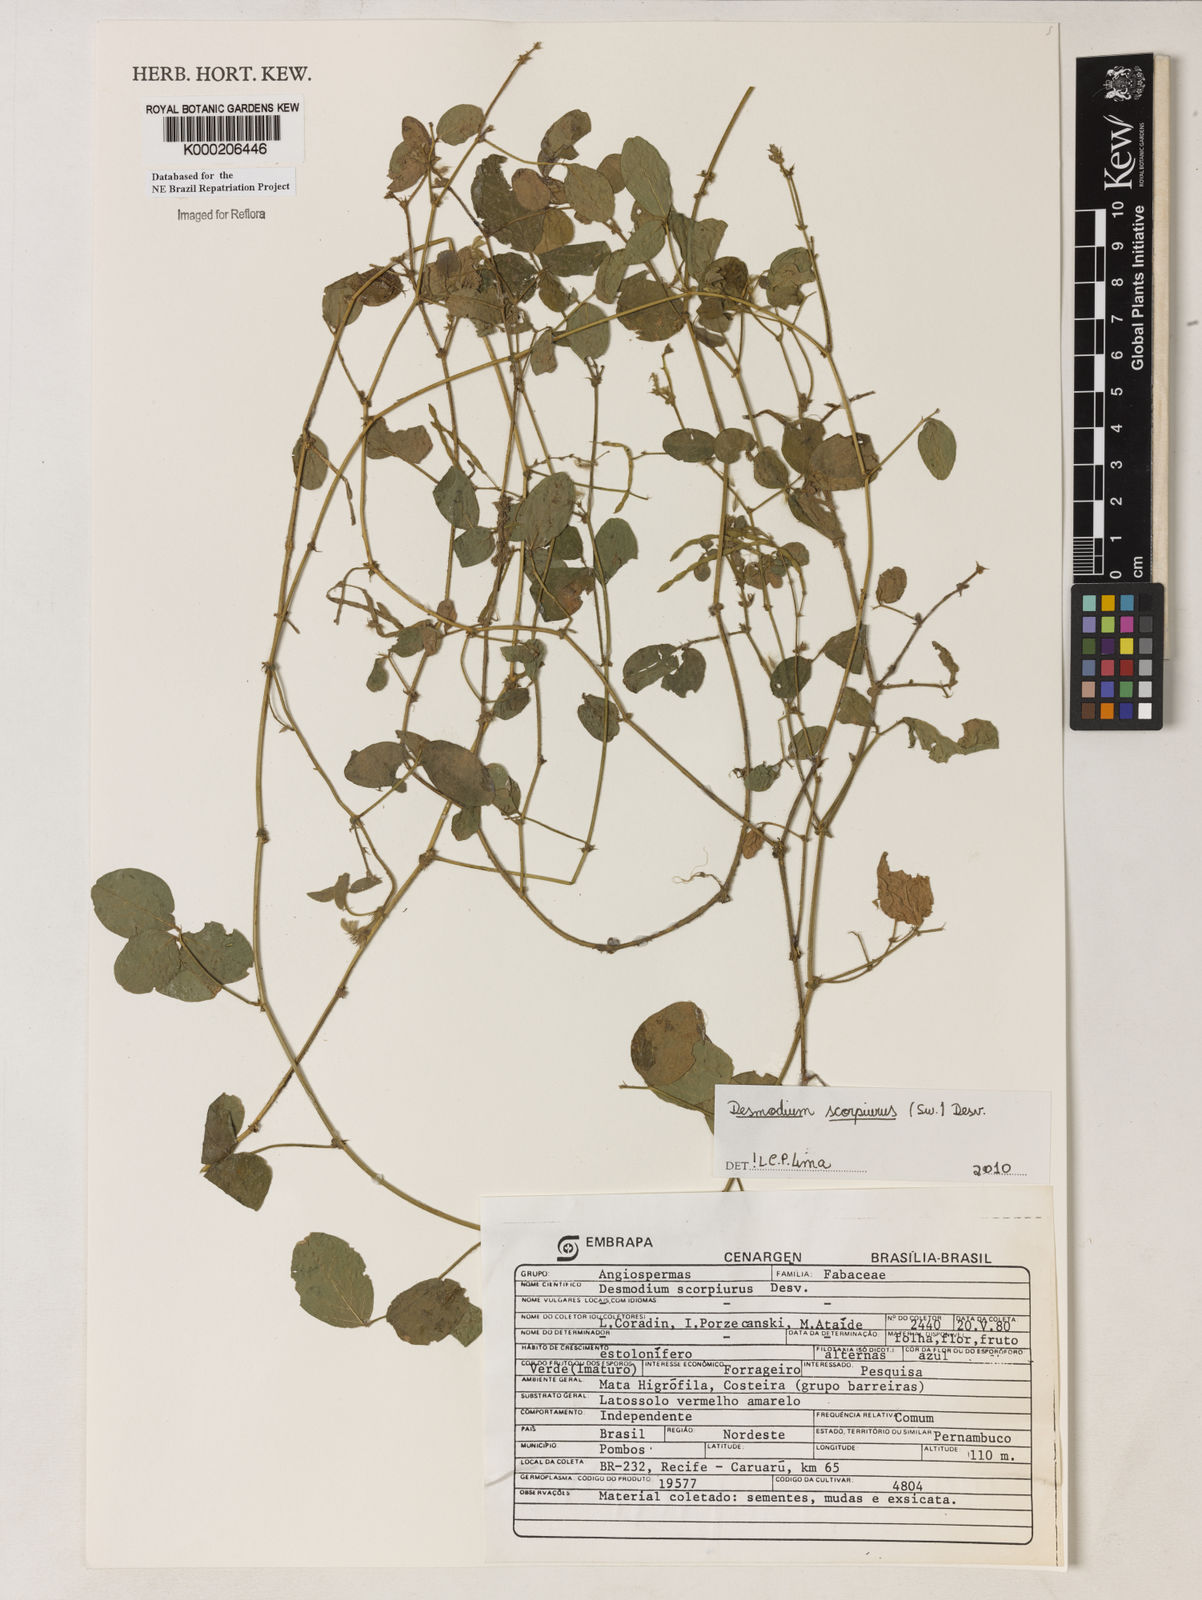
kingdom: Plantae
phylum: Tracheophyta
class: Magnoliopsida
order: Fabales
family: Fabaceae
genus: Desmodium
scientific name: Desmodium
